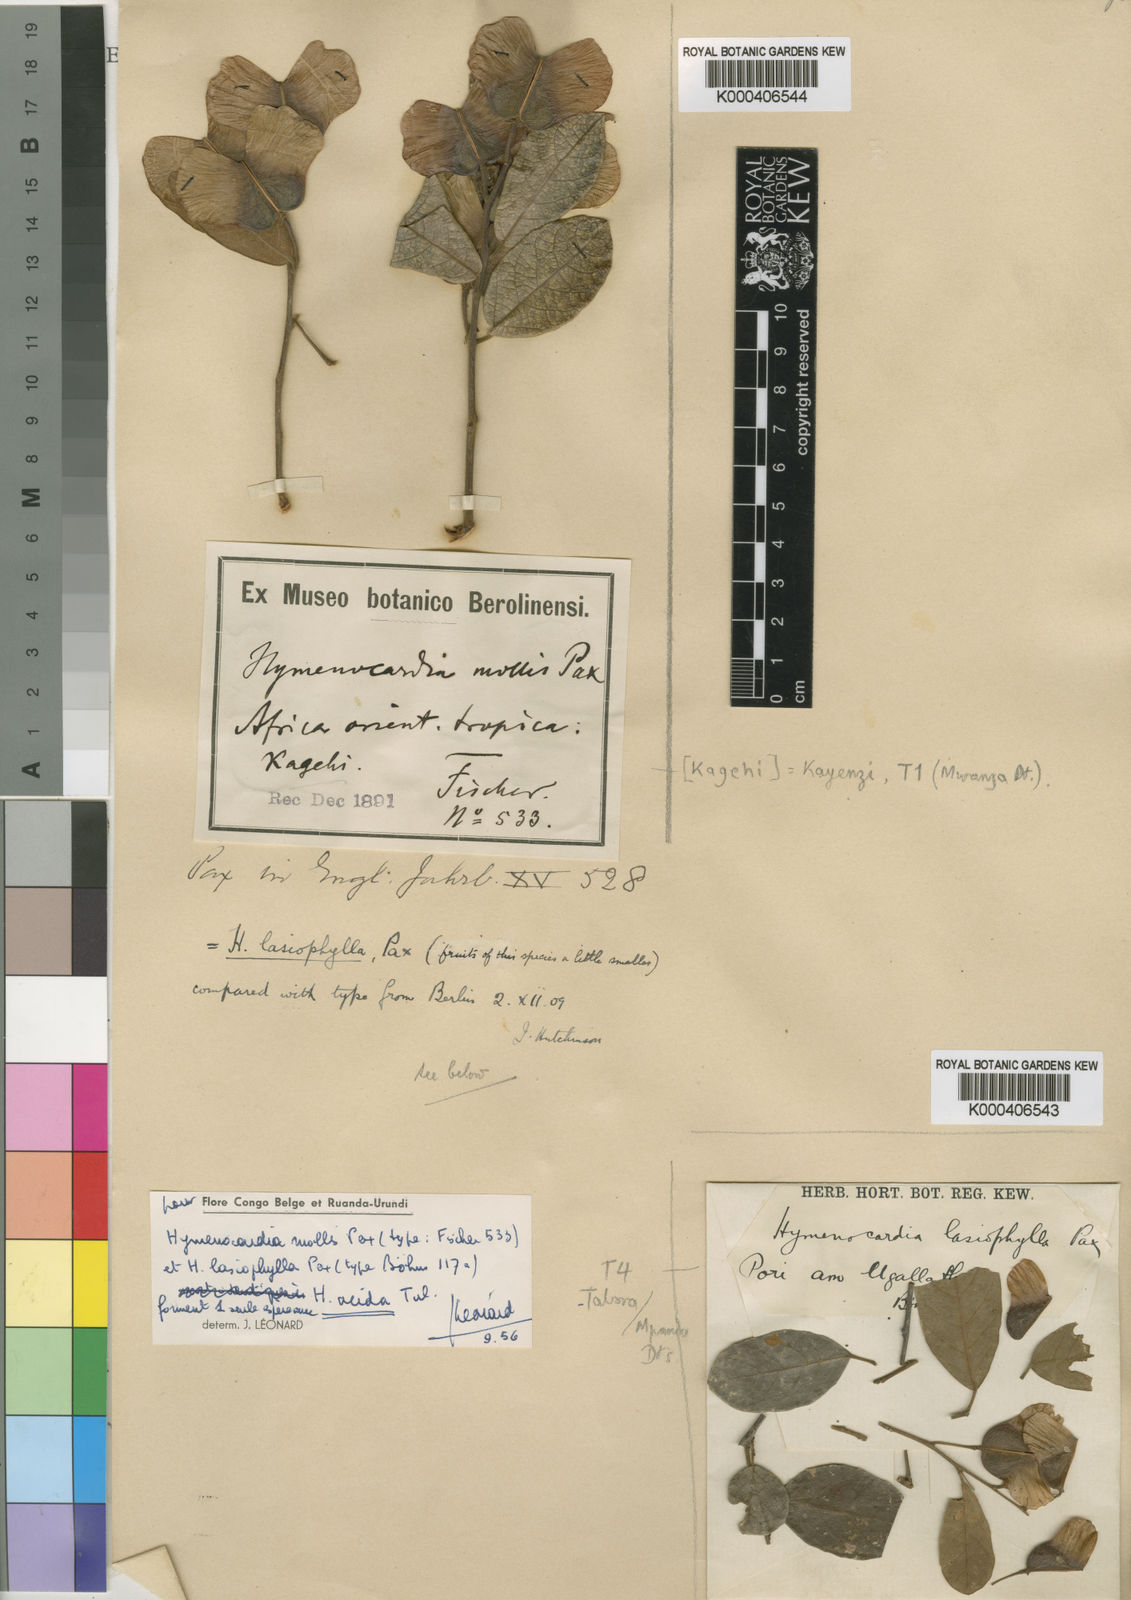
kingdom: Plantae
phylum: Tracheophyta
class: Magnoliopsida
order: Malpighiales
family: Phyllanthaceae
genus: Hymenocardia
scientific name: Hymenocardia acida
